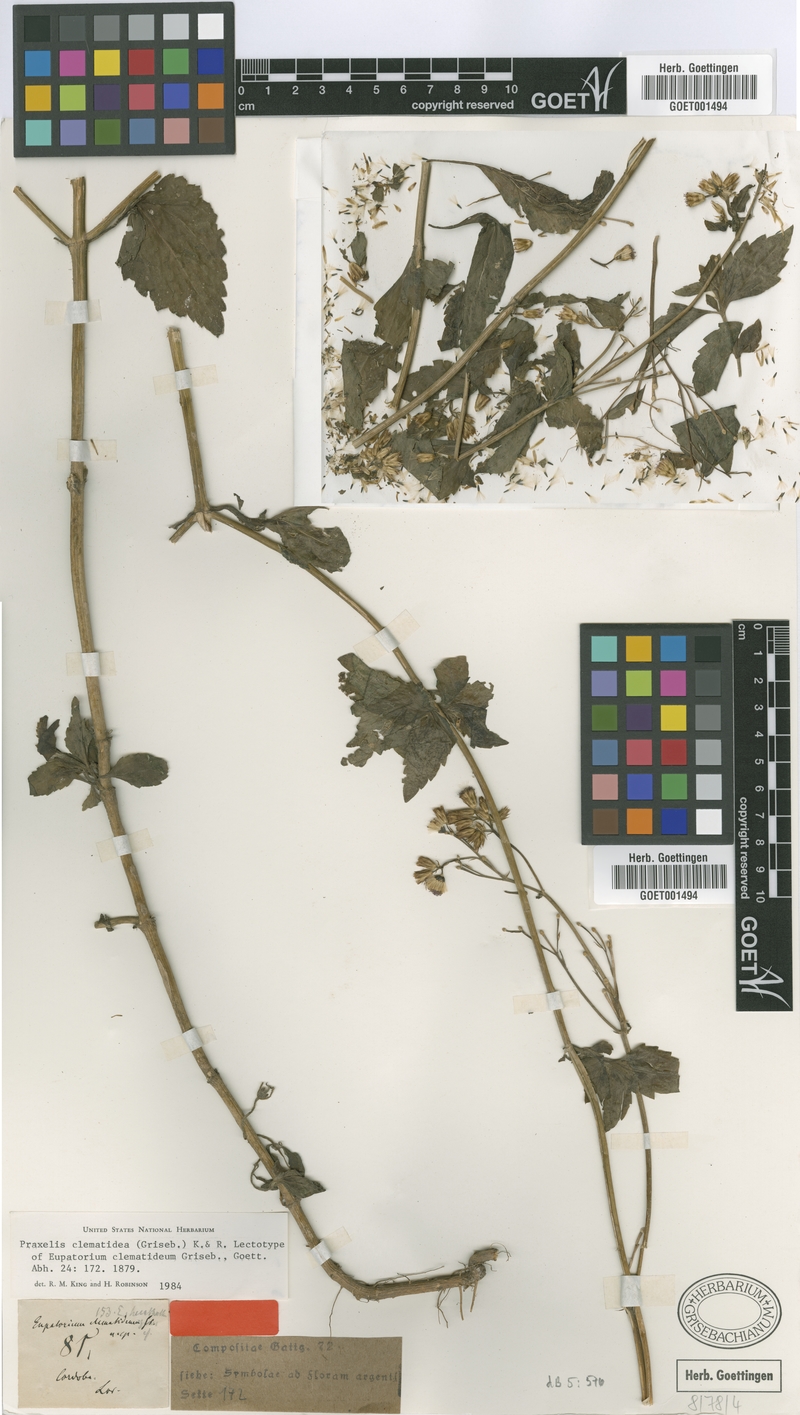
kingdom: Plantae
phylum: Tracheophyta
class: Magnoliopsida
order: Asterales
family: Asteraceae
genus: Praxelis
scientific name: Praxelis clematidea
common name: Praxelis
